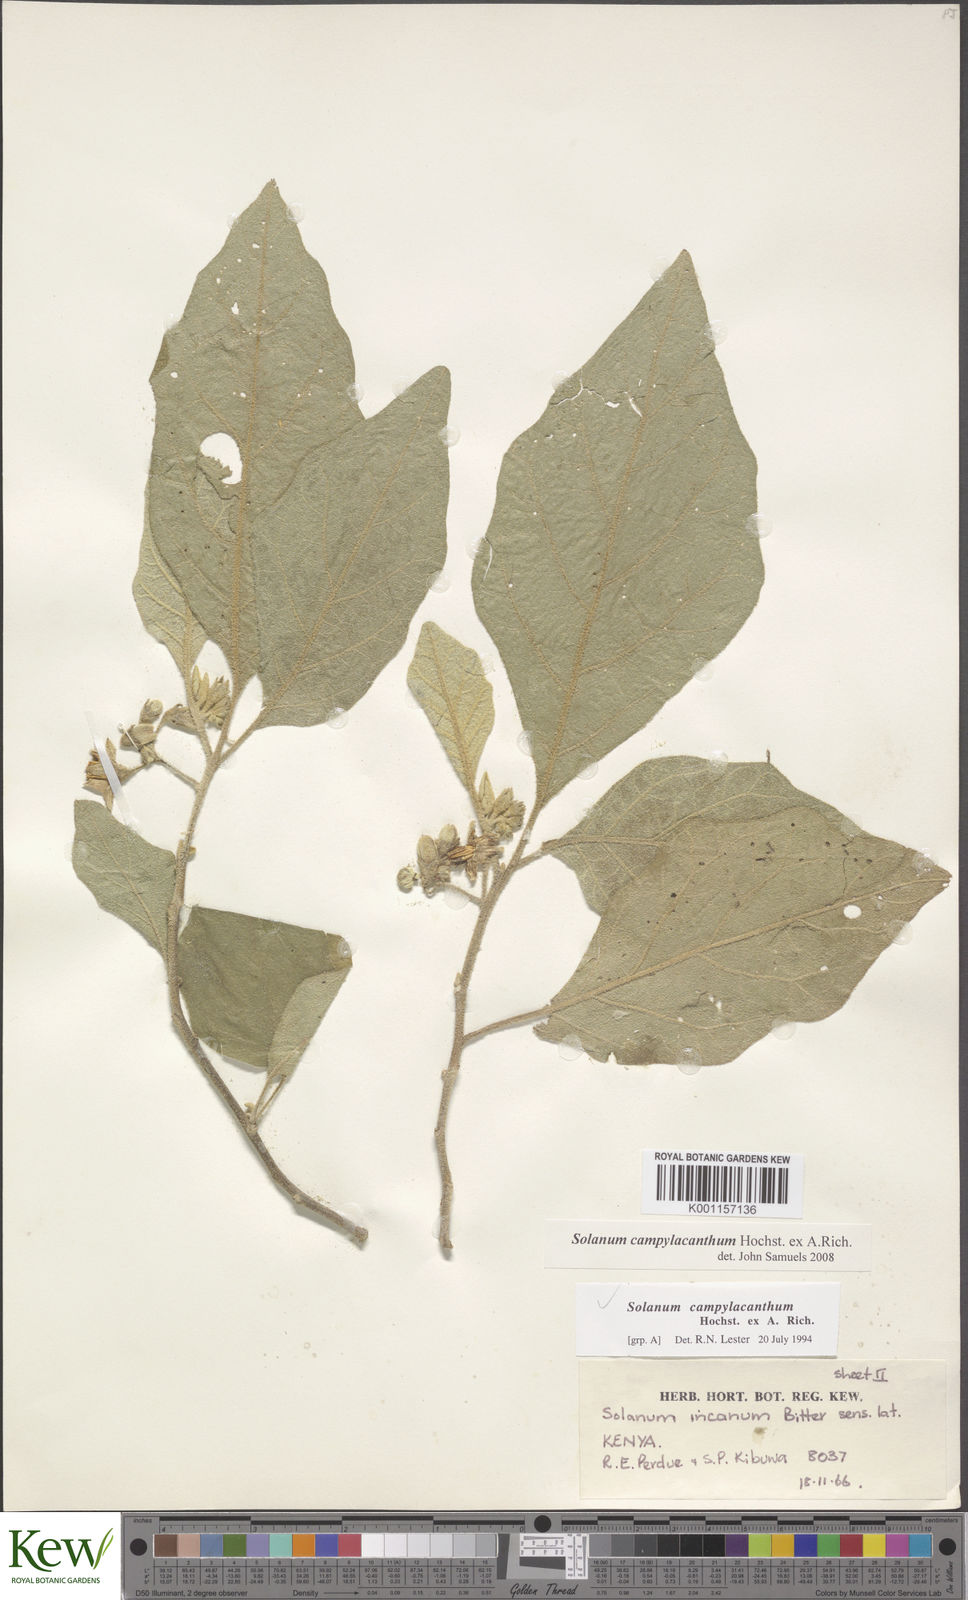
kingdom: Plantae
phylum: Tracheophyta
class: Magnoliopsida
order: Solanales
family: Solanaceae
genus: Solanum
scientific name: Solanum campylacanthum
